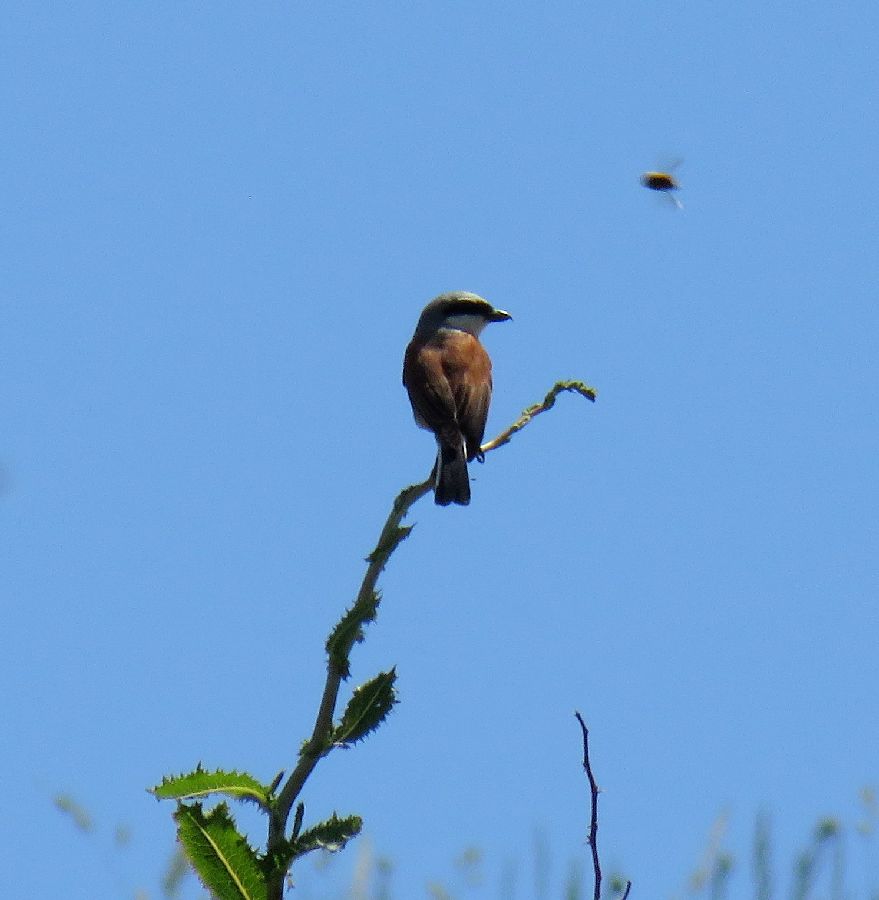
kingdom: Animalia
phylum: Chordata
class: Aves
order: Passeriformes
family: Laniidae
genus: Lanius
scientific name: Lanius collurio
